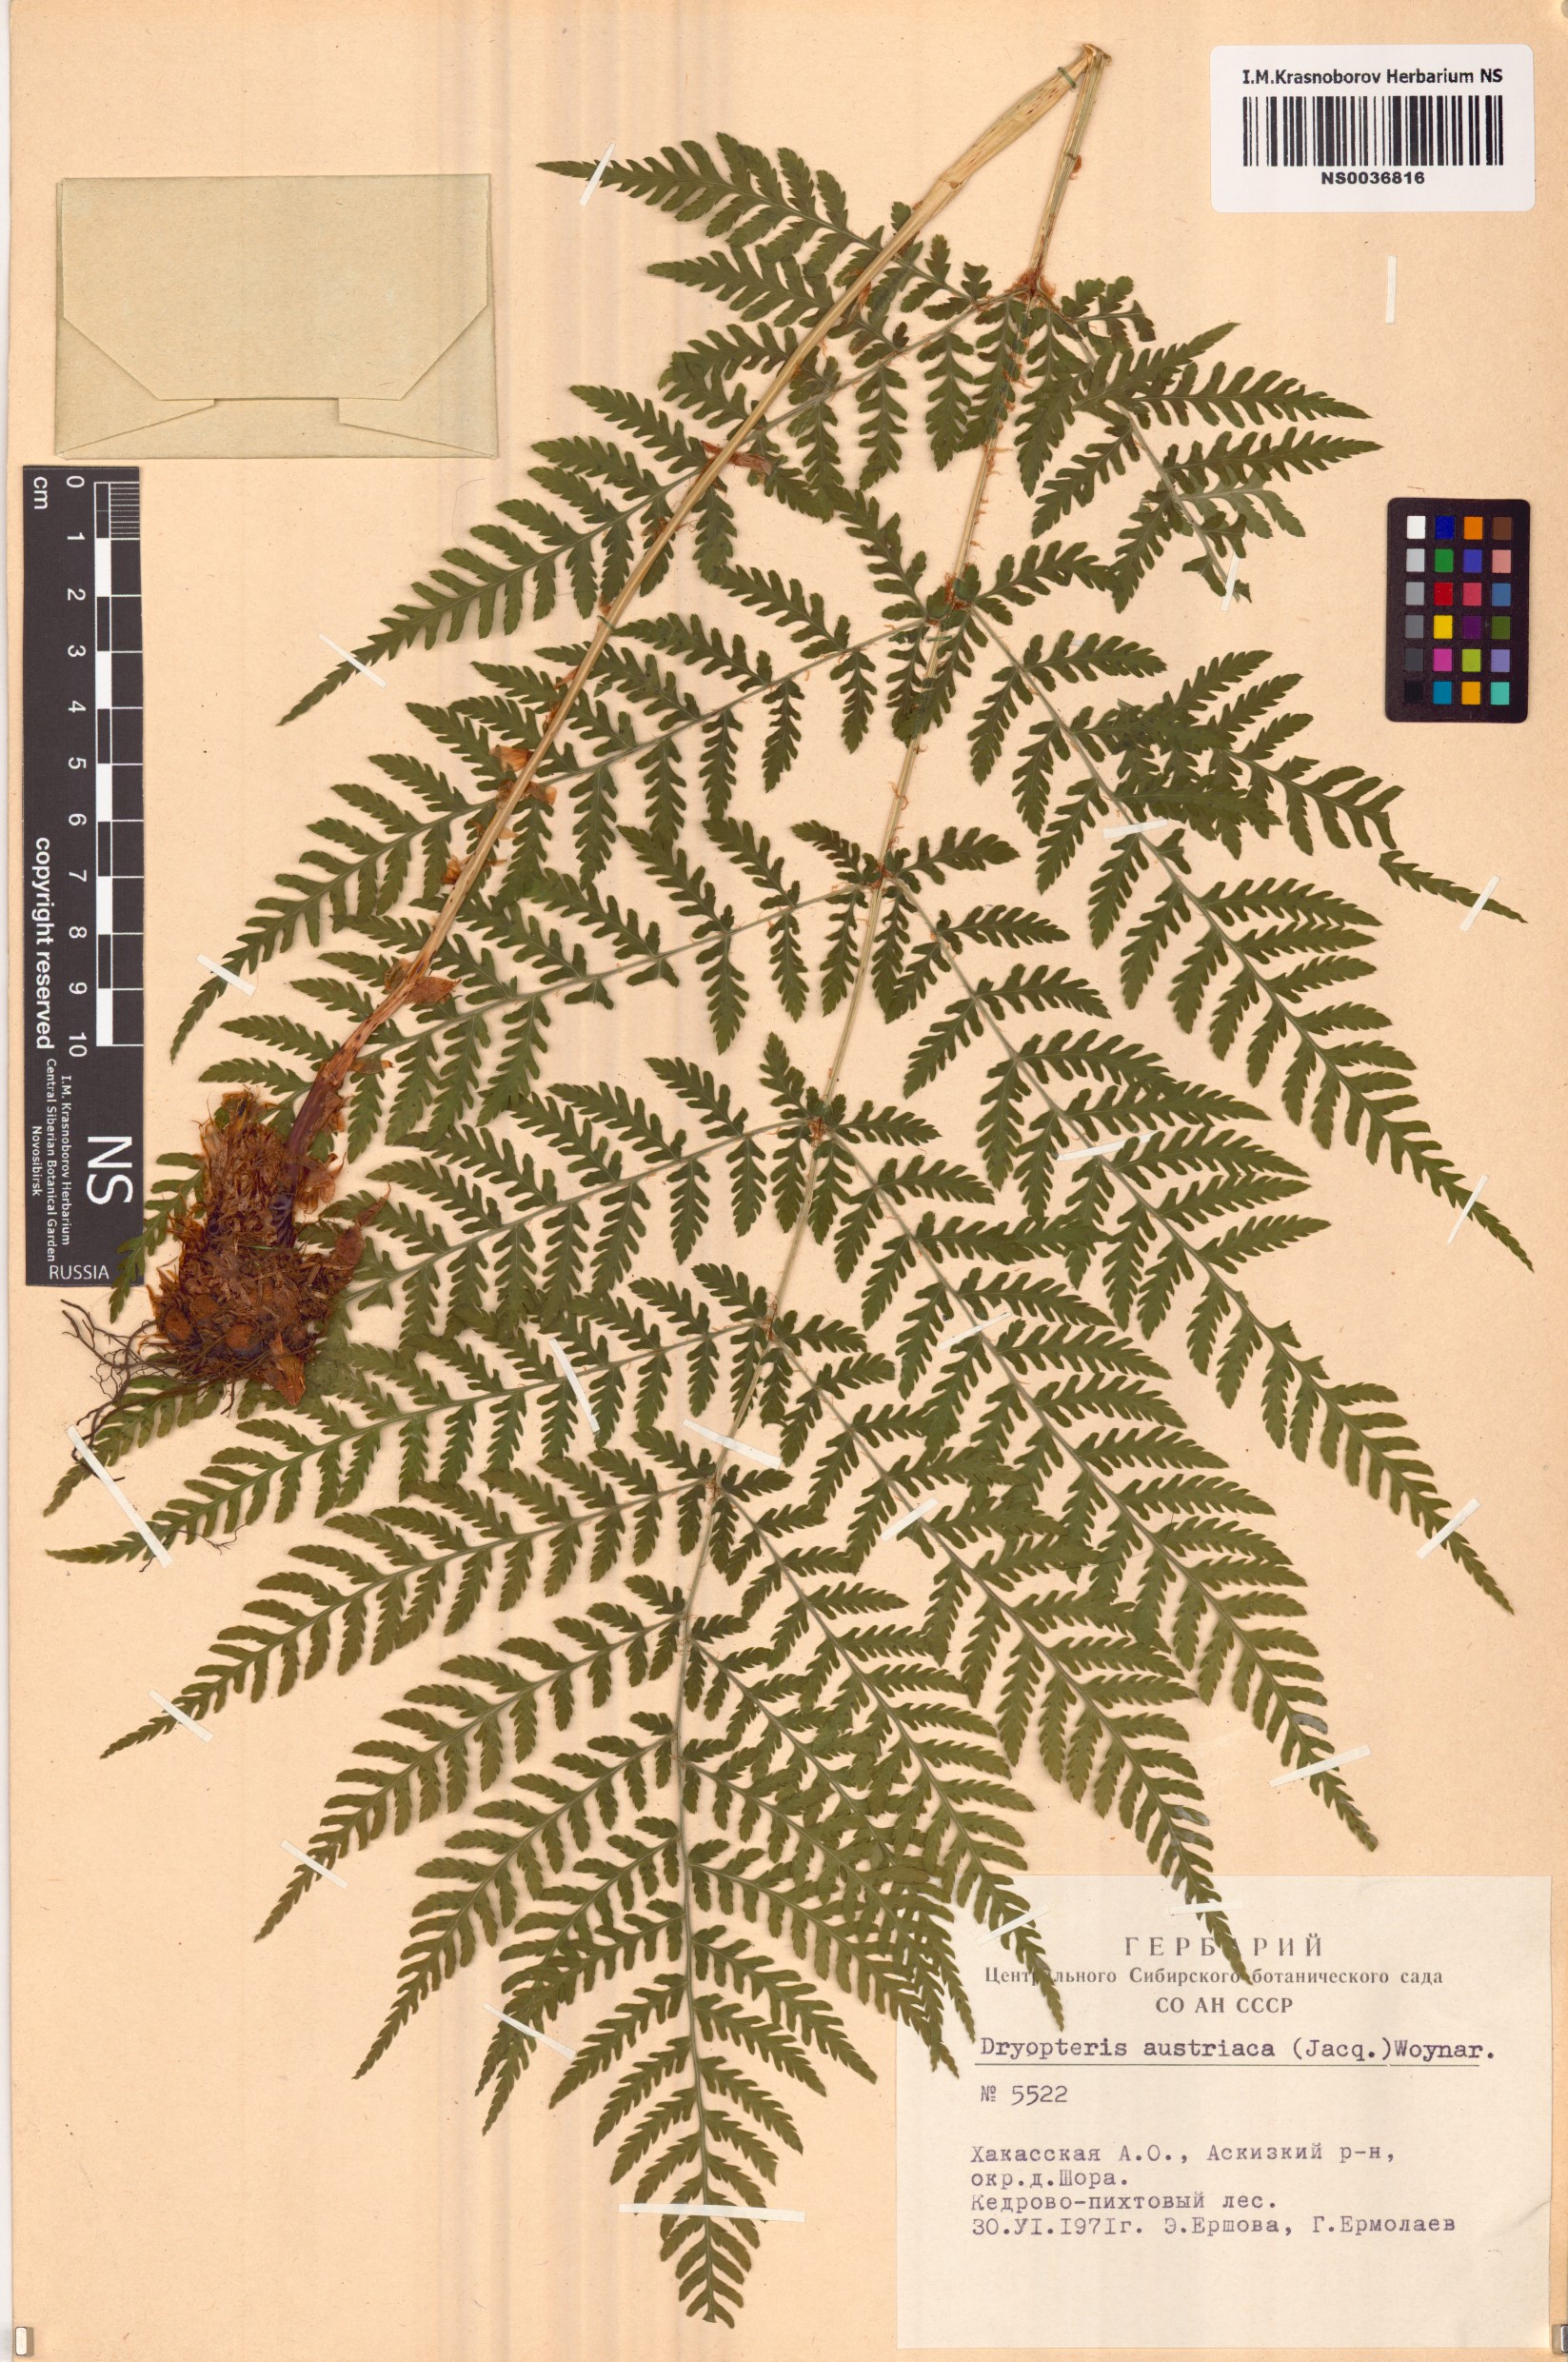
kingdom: Plantae
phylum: Tracheophyta
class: Polypodiopsida
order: Polypodiales
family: Dryopteridaceae
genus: Dryopteris
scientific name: Dryopteris dilatata
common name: Broad buckler-fern
